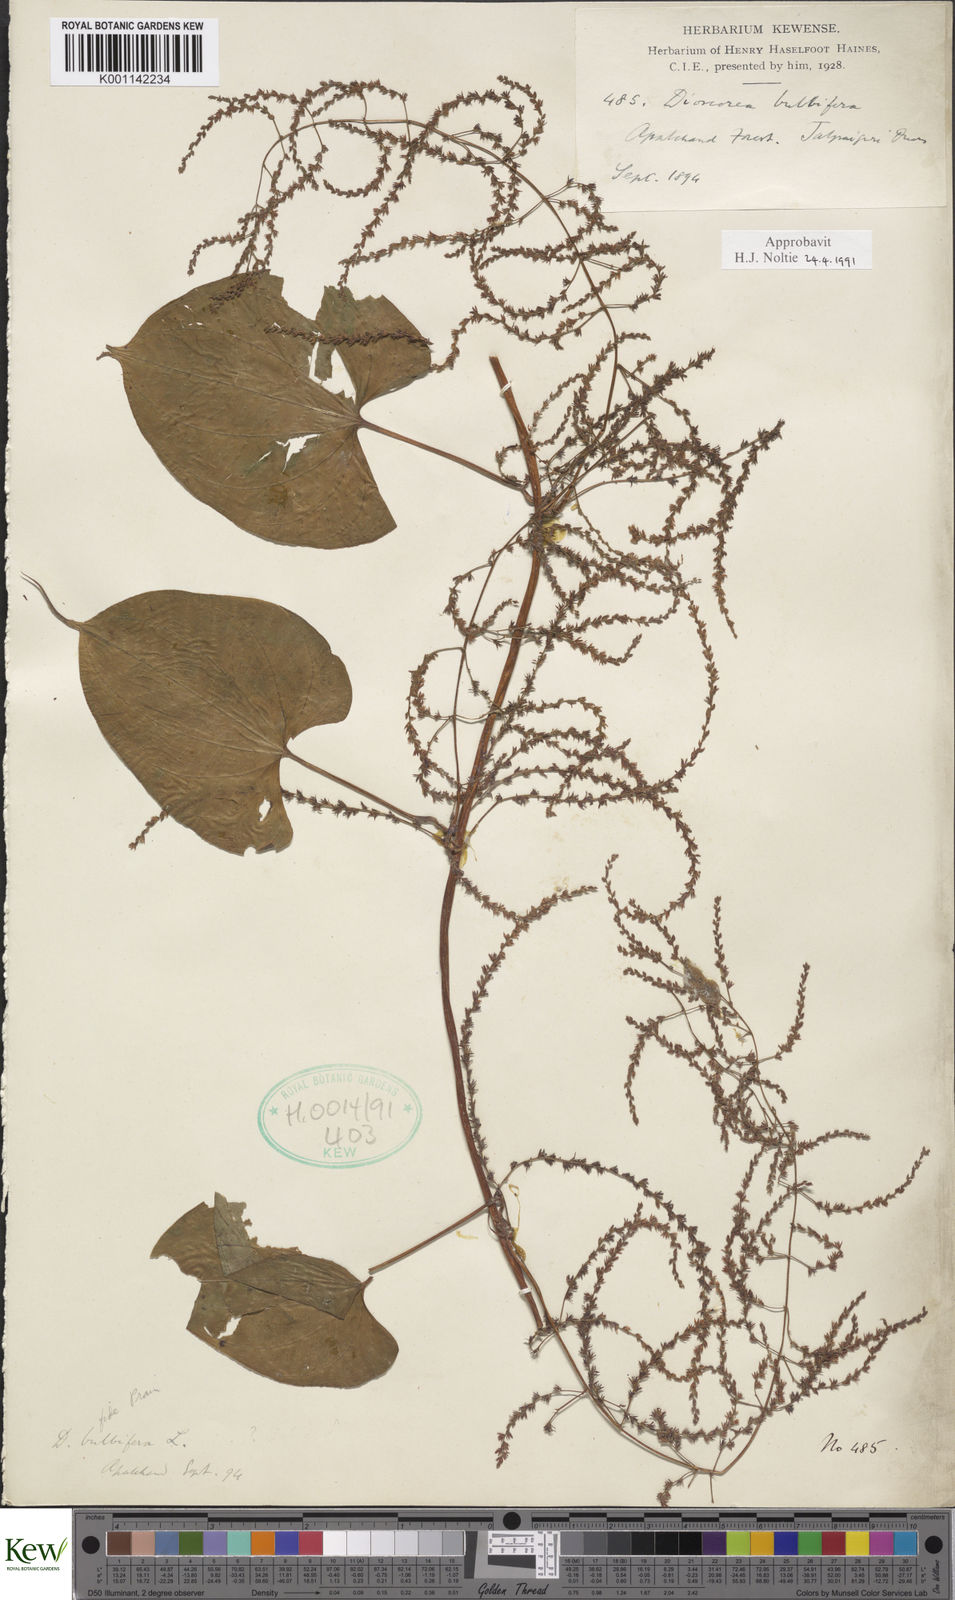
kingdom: Plantae
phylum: Tracheophyta
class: Liliopsida
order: Dioscoreales
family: Dioscoreaceae
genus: Dioscorea
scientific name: Dioscorea bulbifera
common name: Air yam
